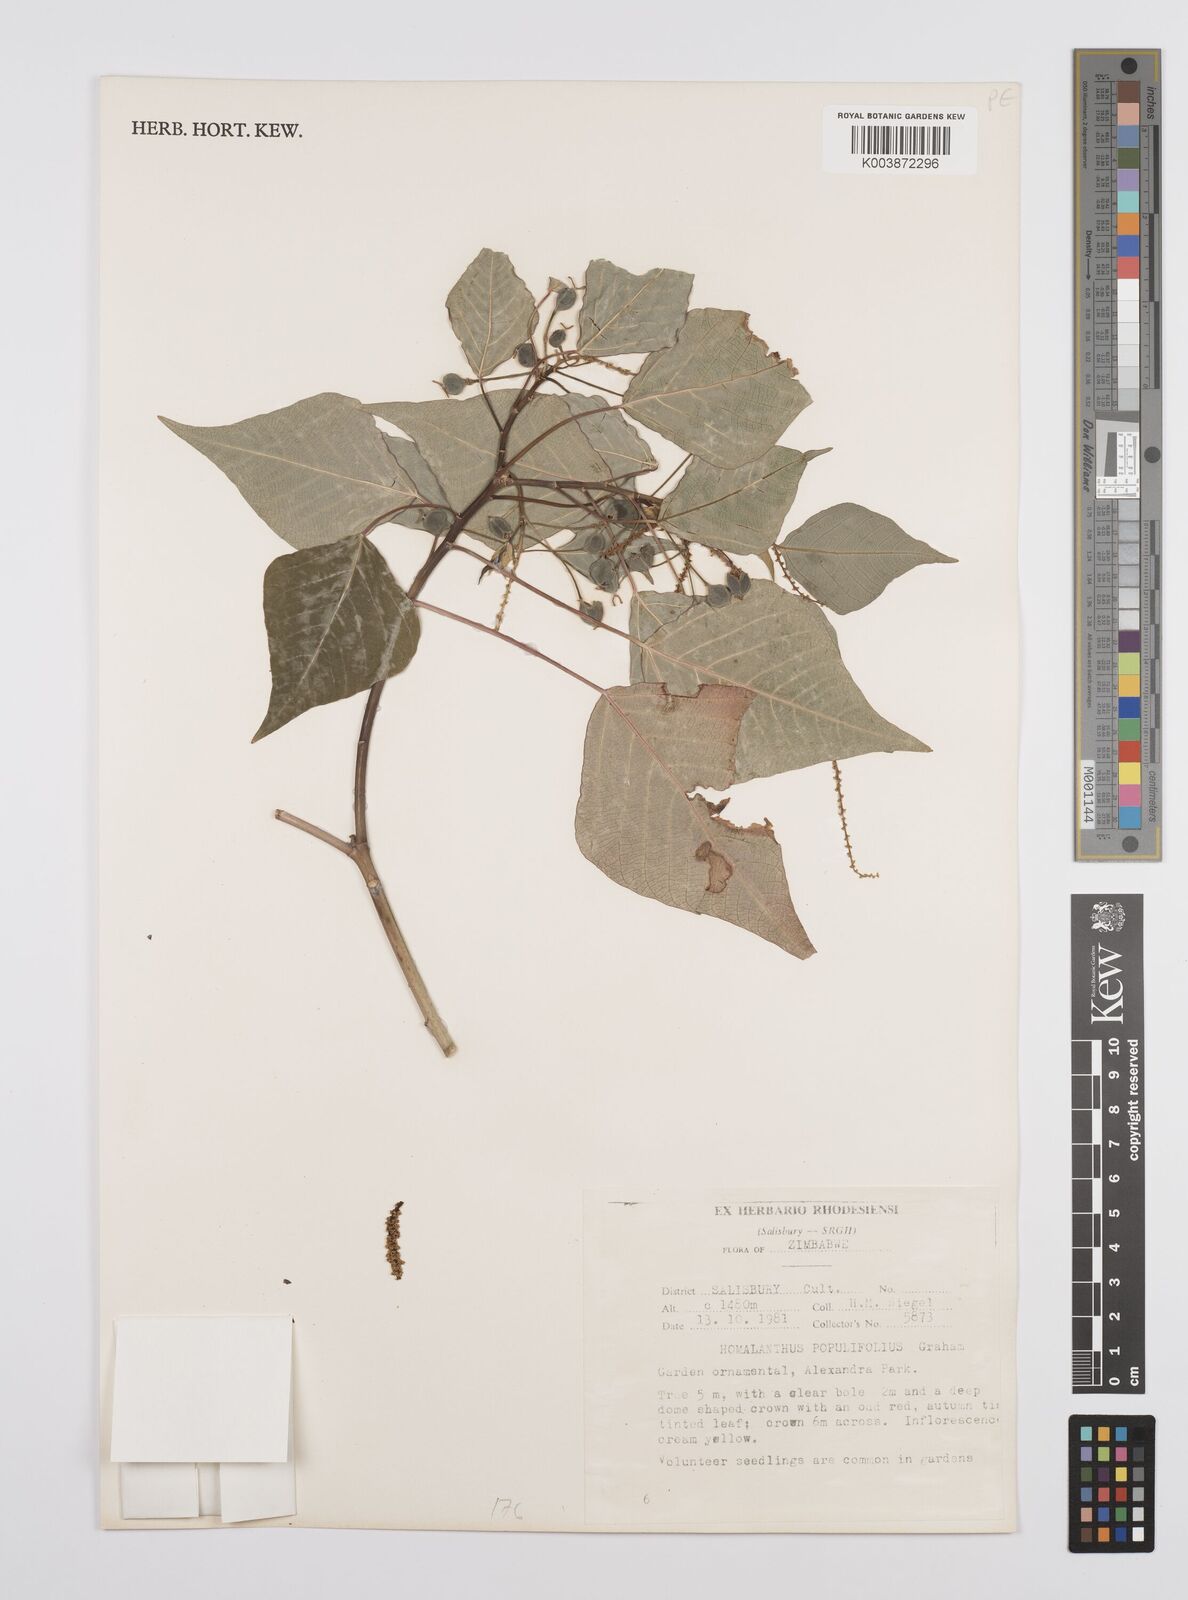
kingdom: Plantae
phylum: Tracheophyta
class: Magnoliopsida
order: Malpighiales
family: Euphorbiaceae
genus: Homalanthus
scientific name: Homalanthus populifolius
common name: Queensland poplar
